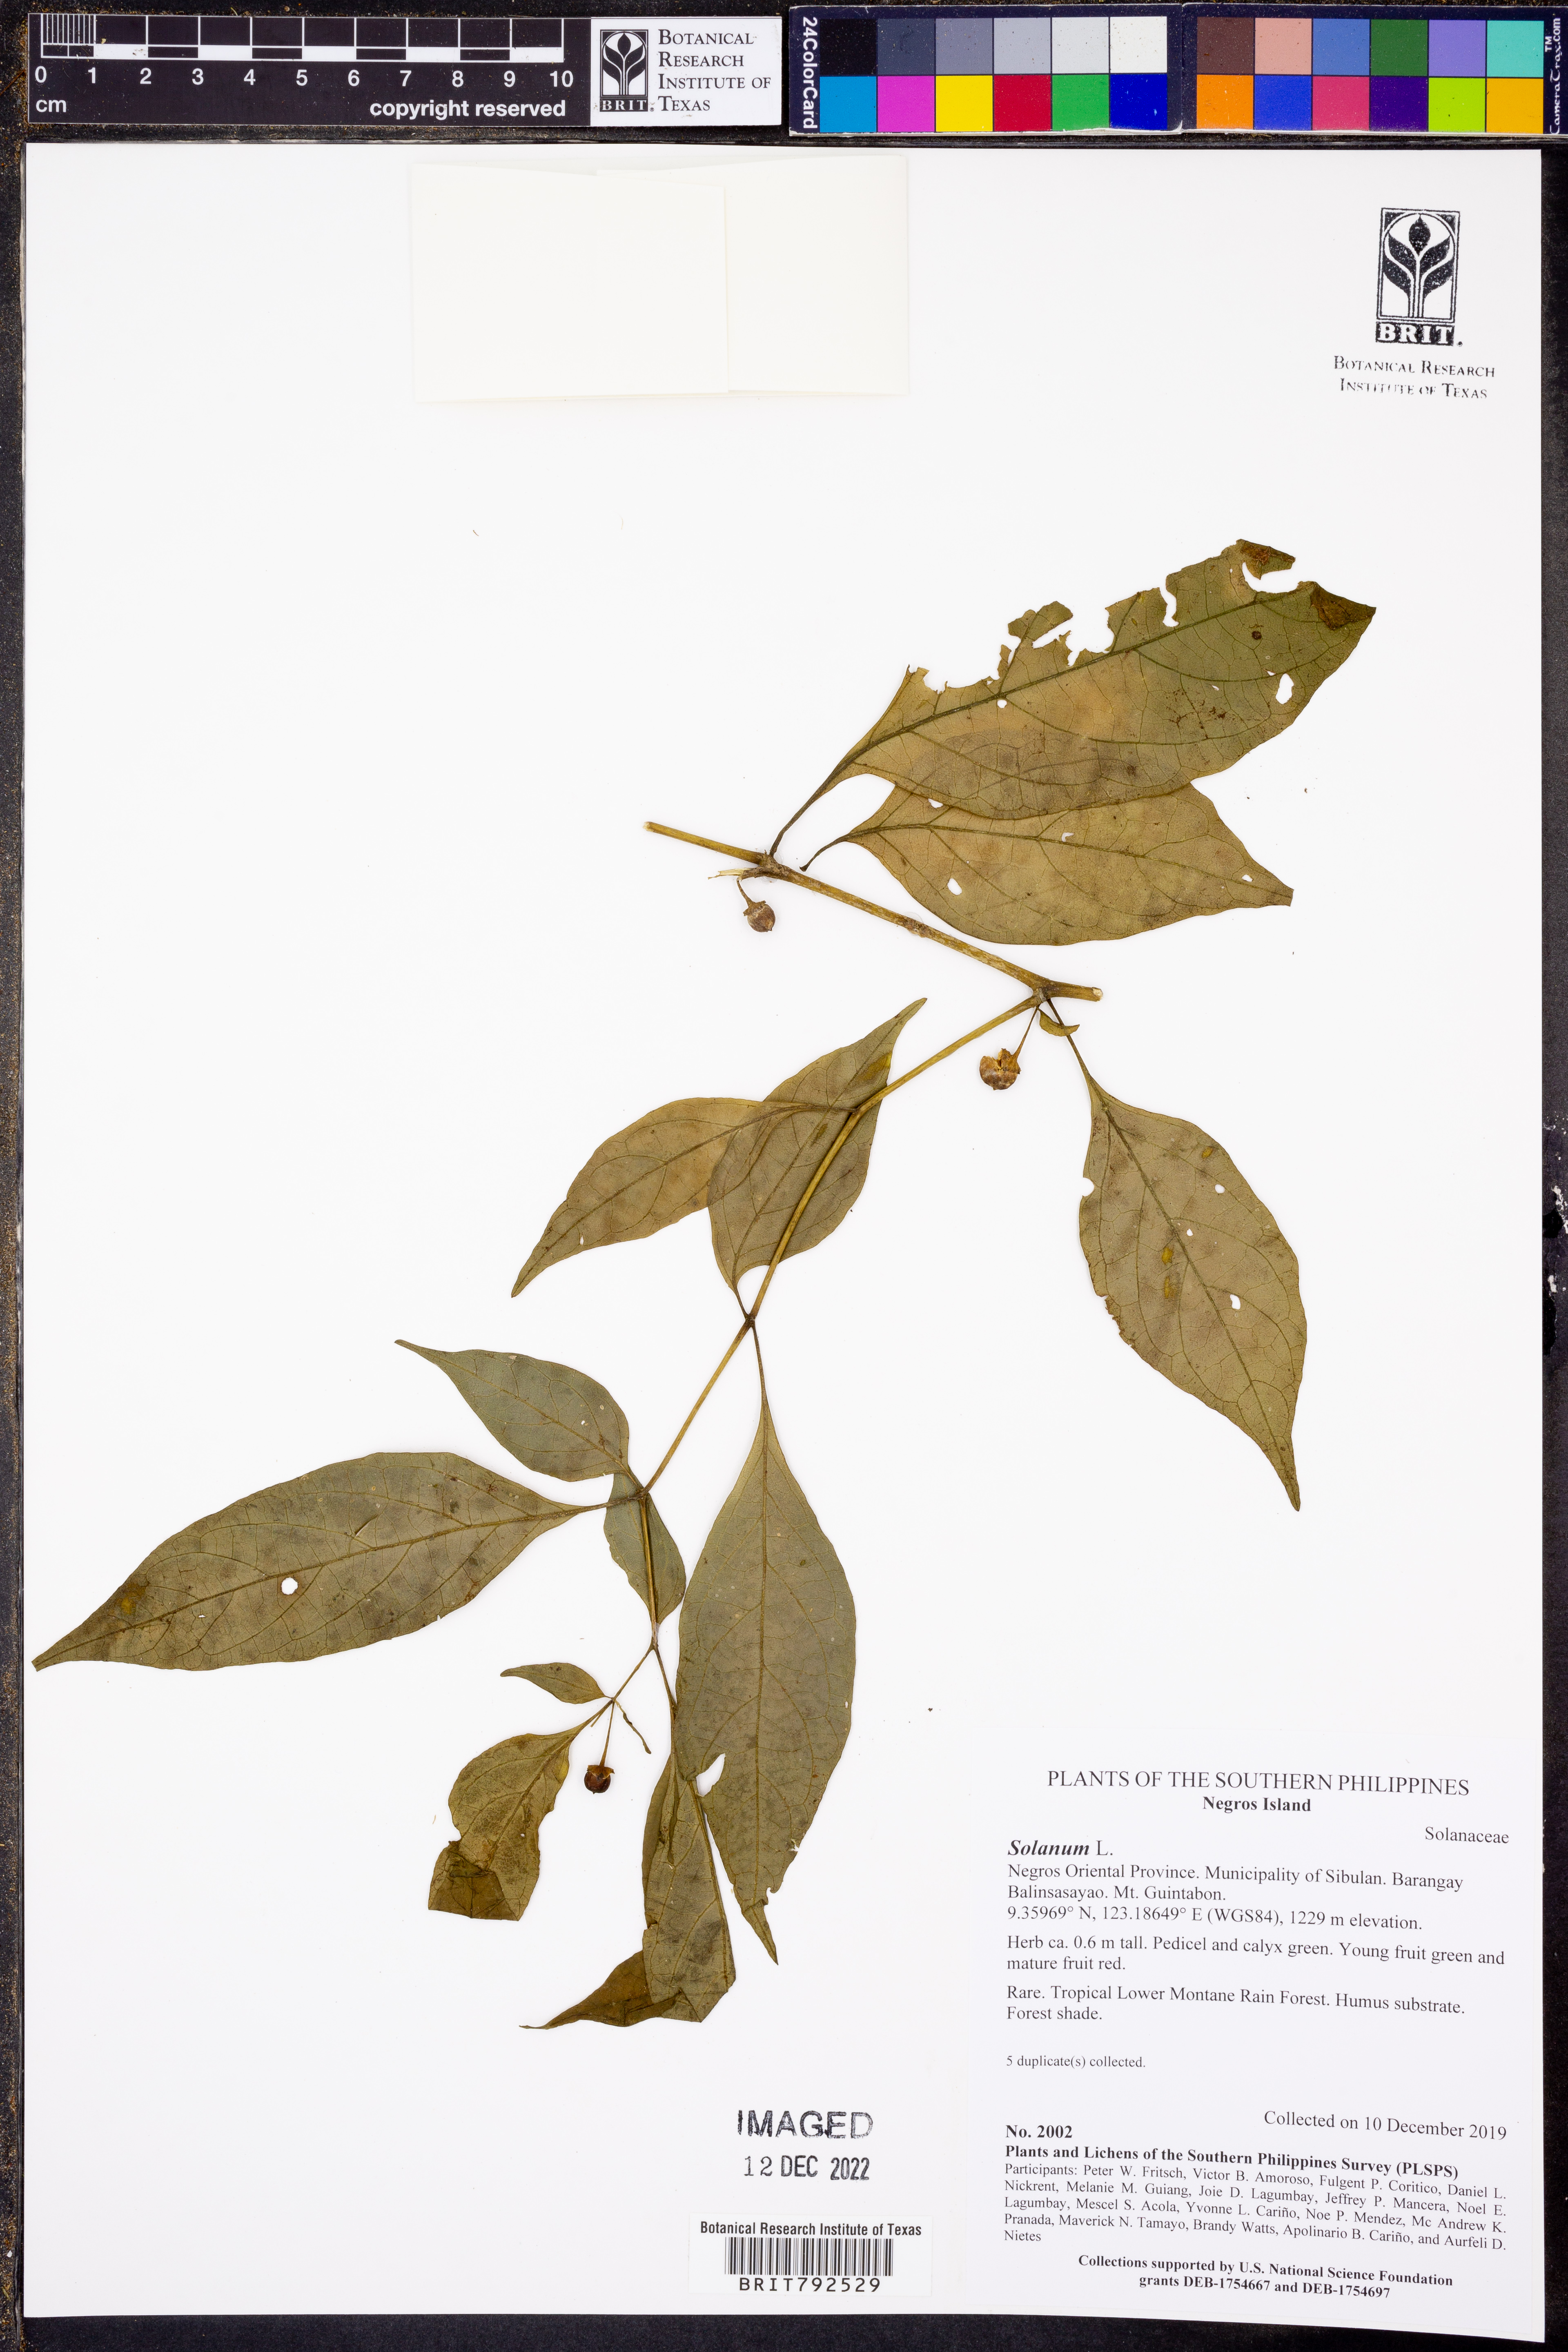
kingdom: Plantae
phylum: Tracheophyta
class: Magnoliopsida
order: Solanales
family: Solanaceae
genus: Solanum
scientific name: Solanum
